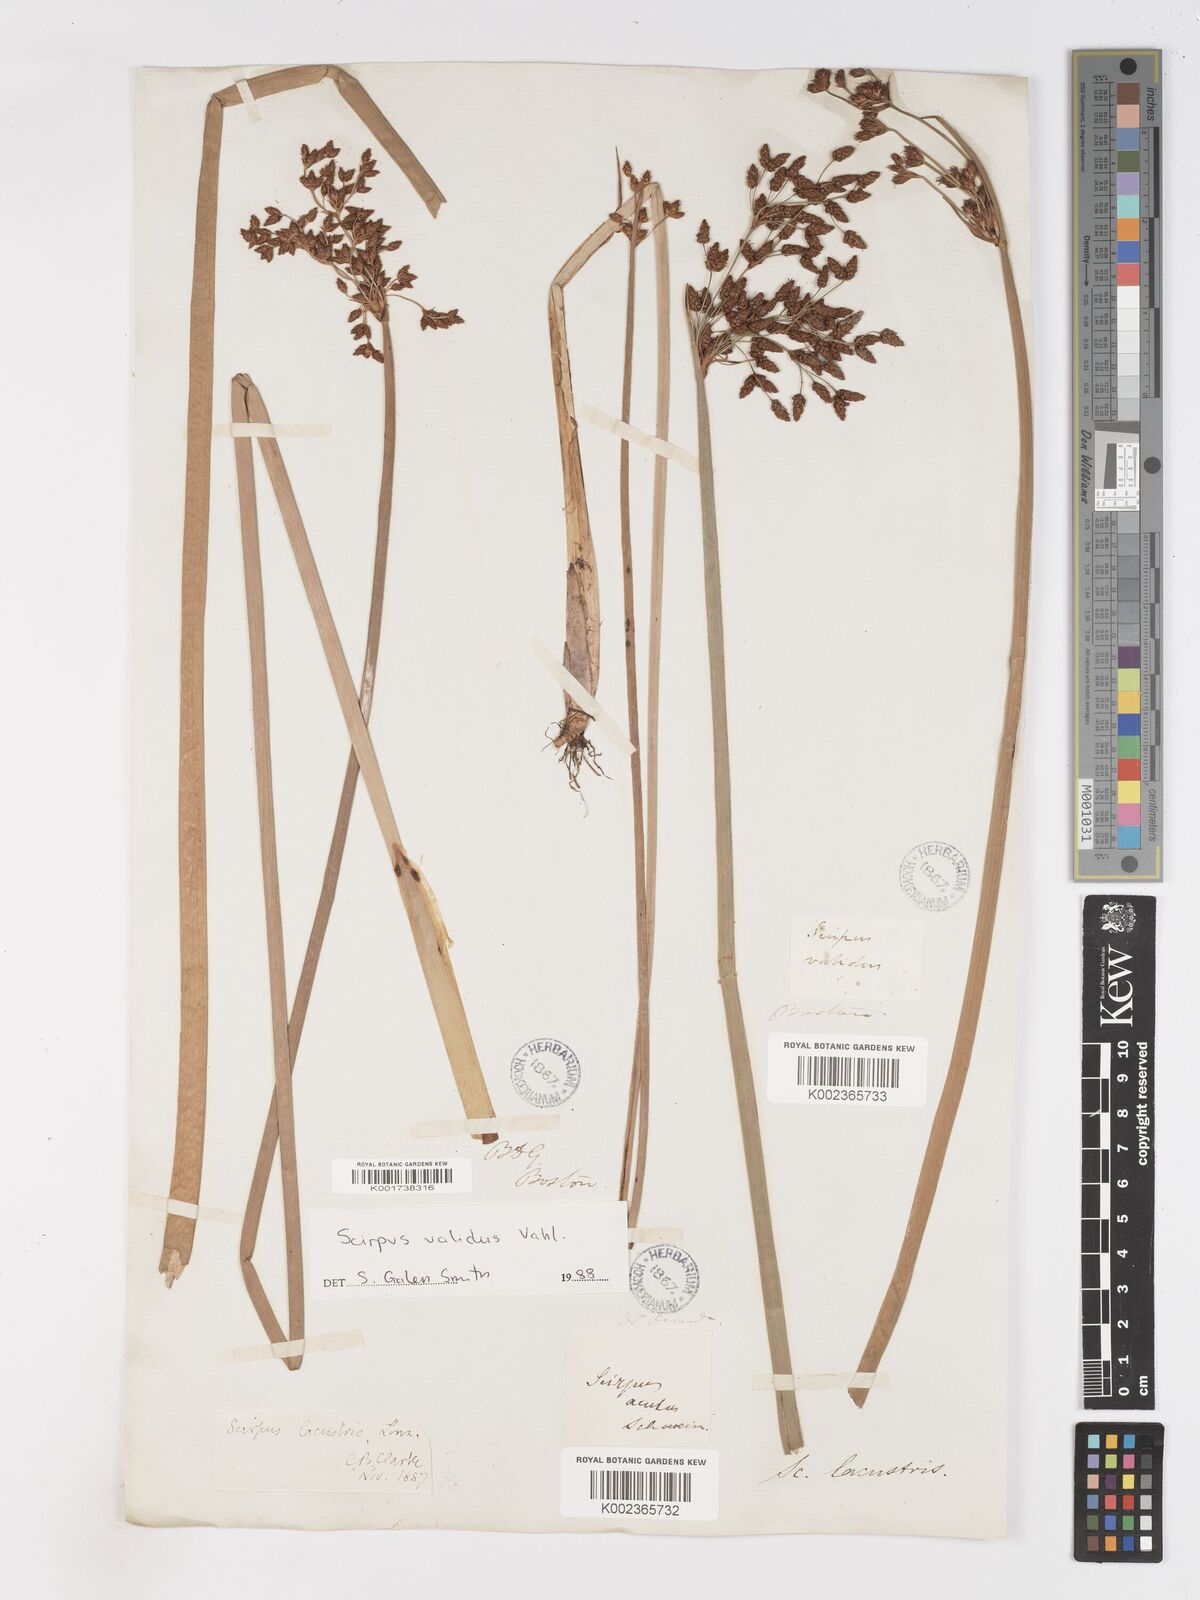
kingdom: Plantae
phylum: Tracheophyta
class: Liliopsida
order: Poales
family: Cyperaceae
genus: Schoenoplectus
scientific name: Schoenoplectus lacustris
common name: Common club-rush
